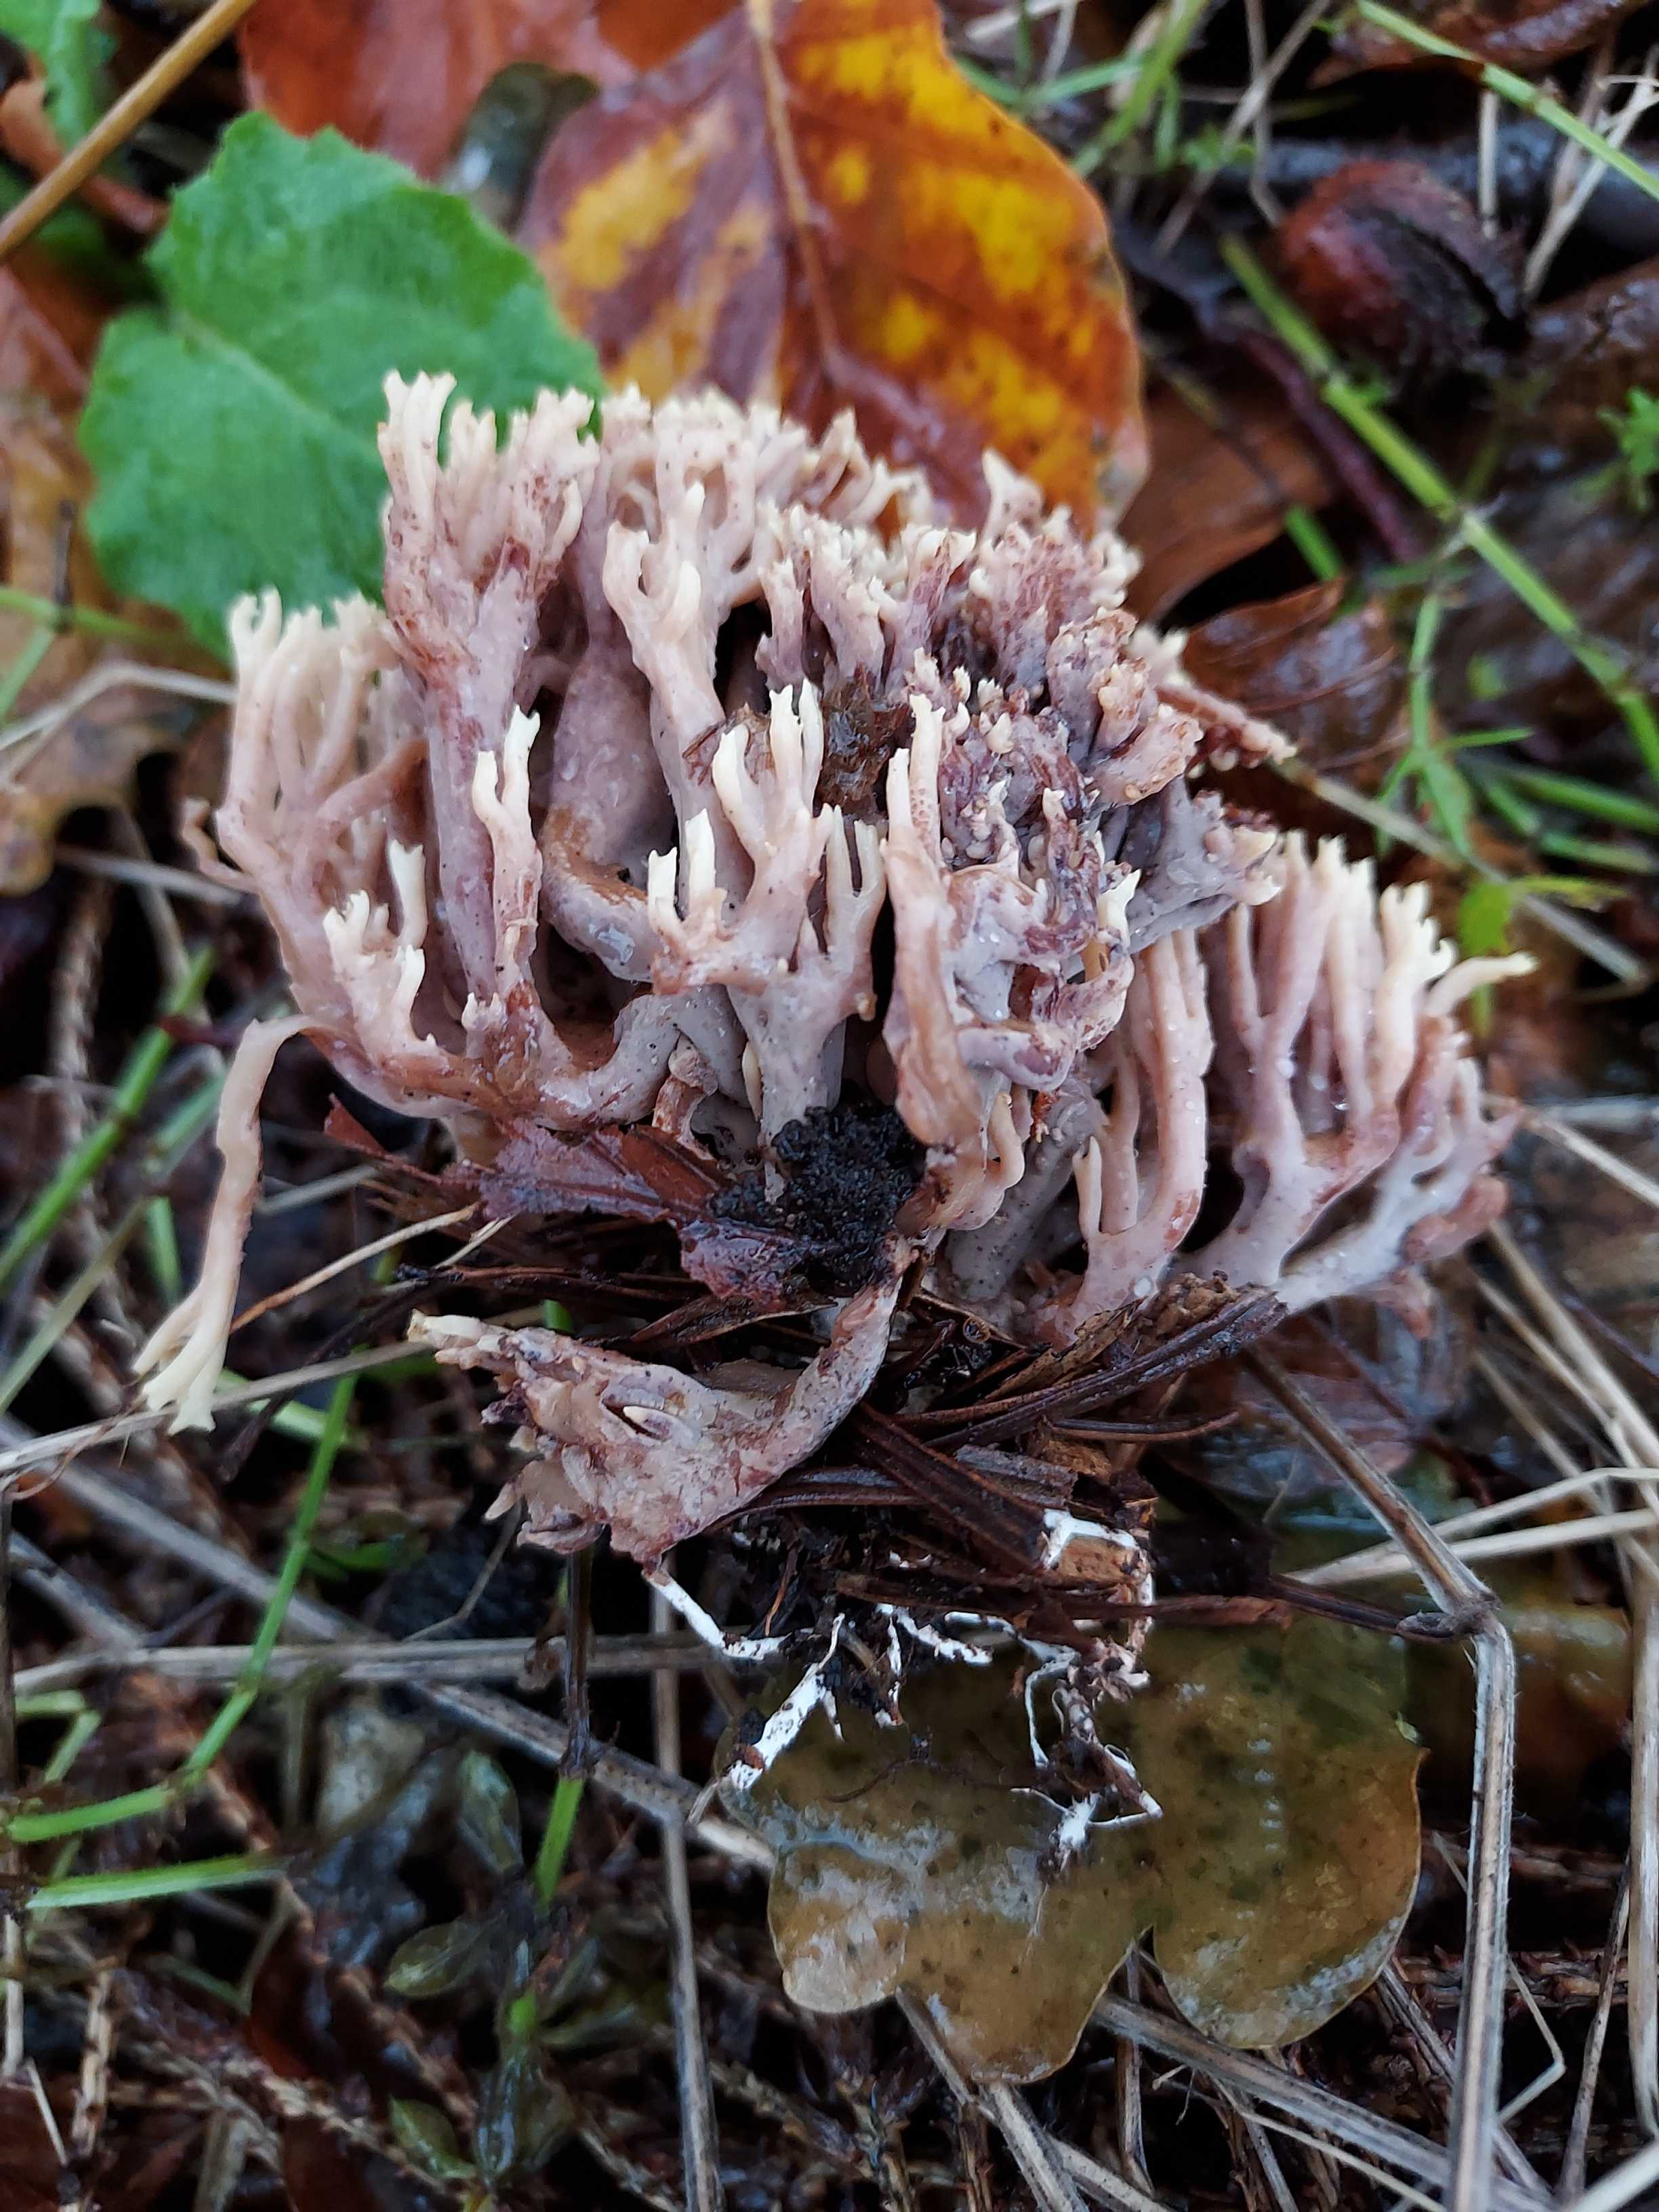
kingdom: Fungi
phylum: Basidiomycota
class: Agaricomycetes
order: Cantharellales
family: Hydnaceae
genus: Clavulina
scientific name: Clavulina
